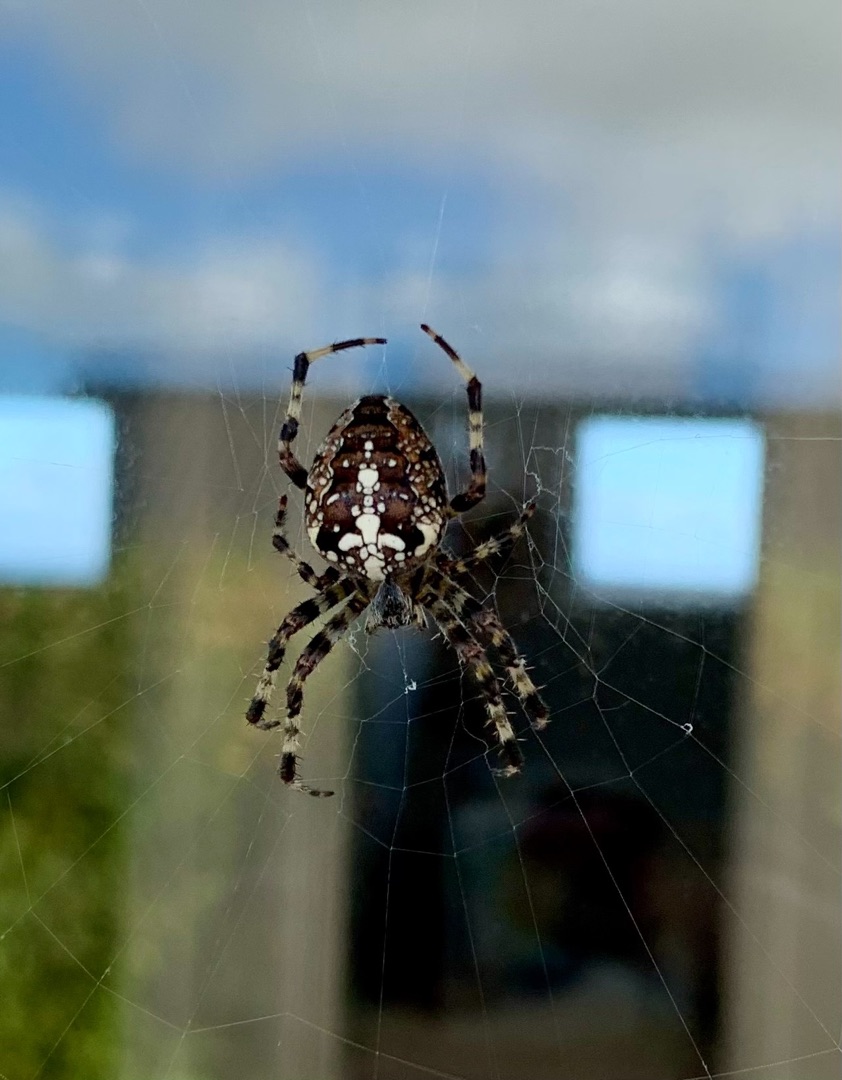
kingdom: Animalia
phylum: Arthropoda
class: Arachnida
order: Araneae
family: Araneidae
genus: Araneus
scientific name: Araneus diadematus
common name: Korsedderkop
